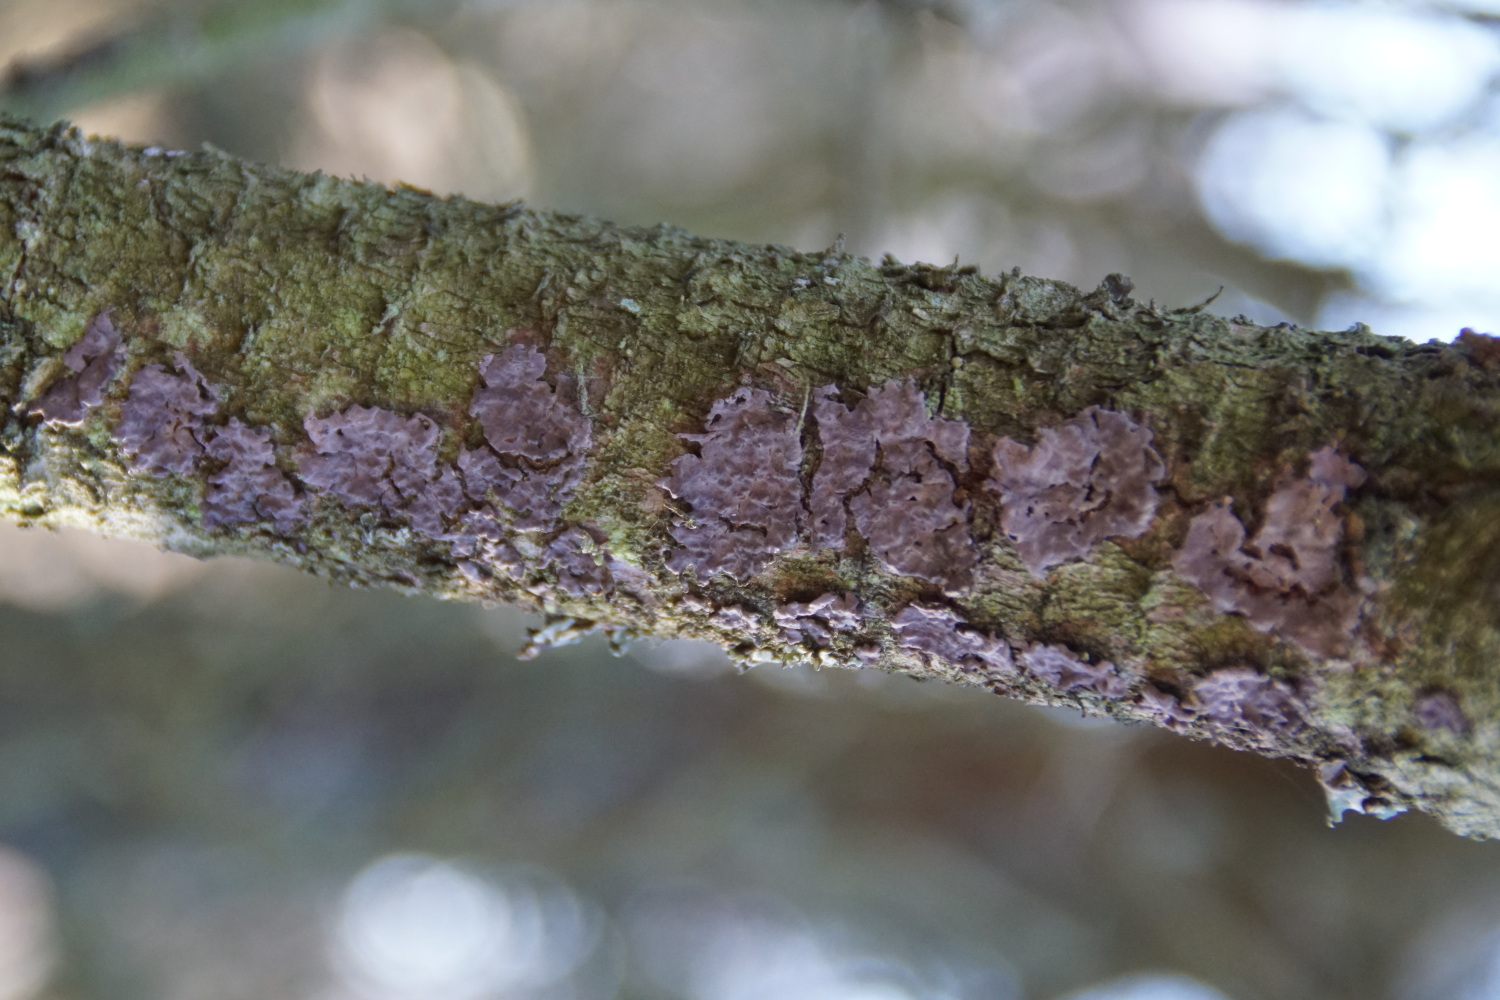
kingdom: Fungi
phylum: Basidiomycota
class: Agaricomycetes
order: Russulales
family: Peniophoraceae
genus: Peniophora
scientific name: Peniophora pini
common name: fyrre-voksskind
